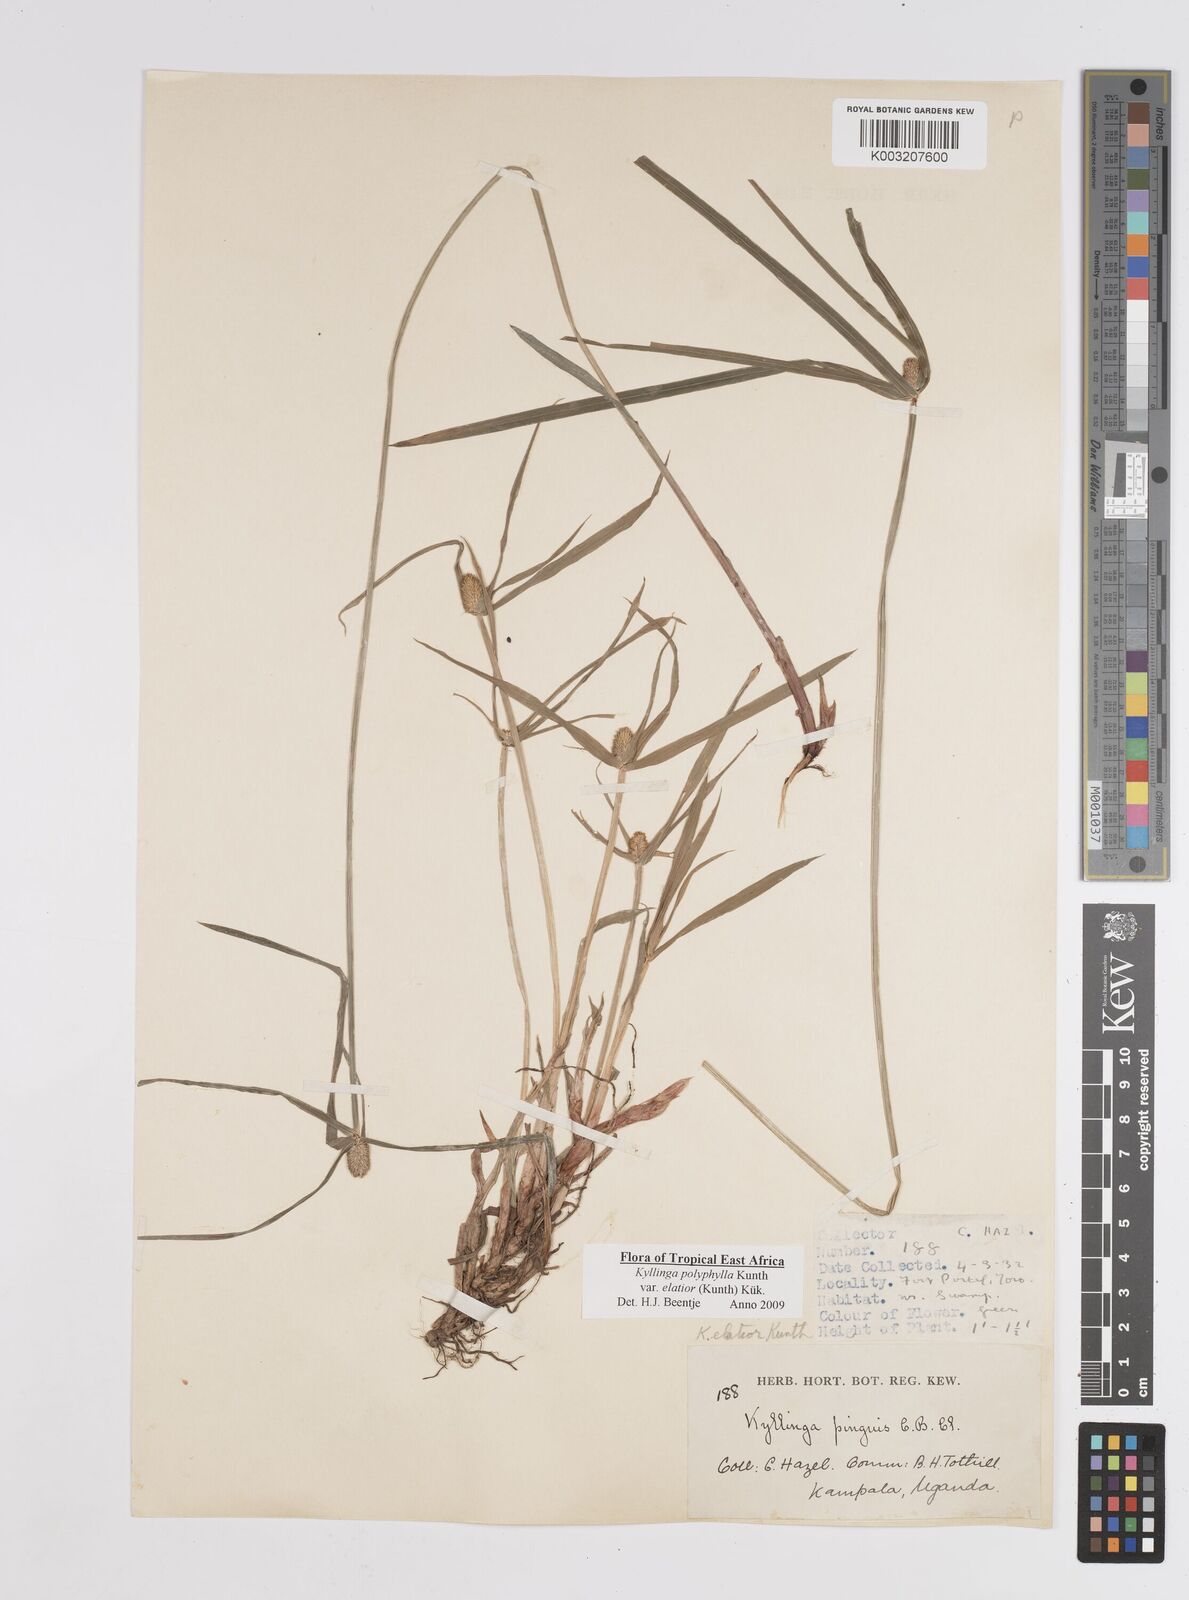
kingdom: Plantae
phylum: Tracheophyta
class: Liliopsida
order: Poales
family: Cyperaceae
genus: Cyperus
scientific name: Cyperus
